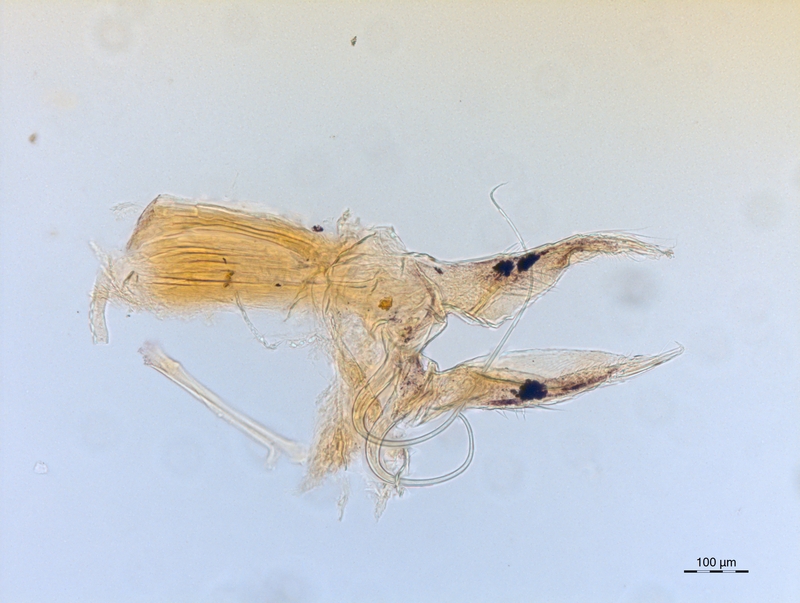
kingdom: Animalia
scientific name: Animalia
